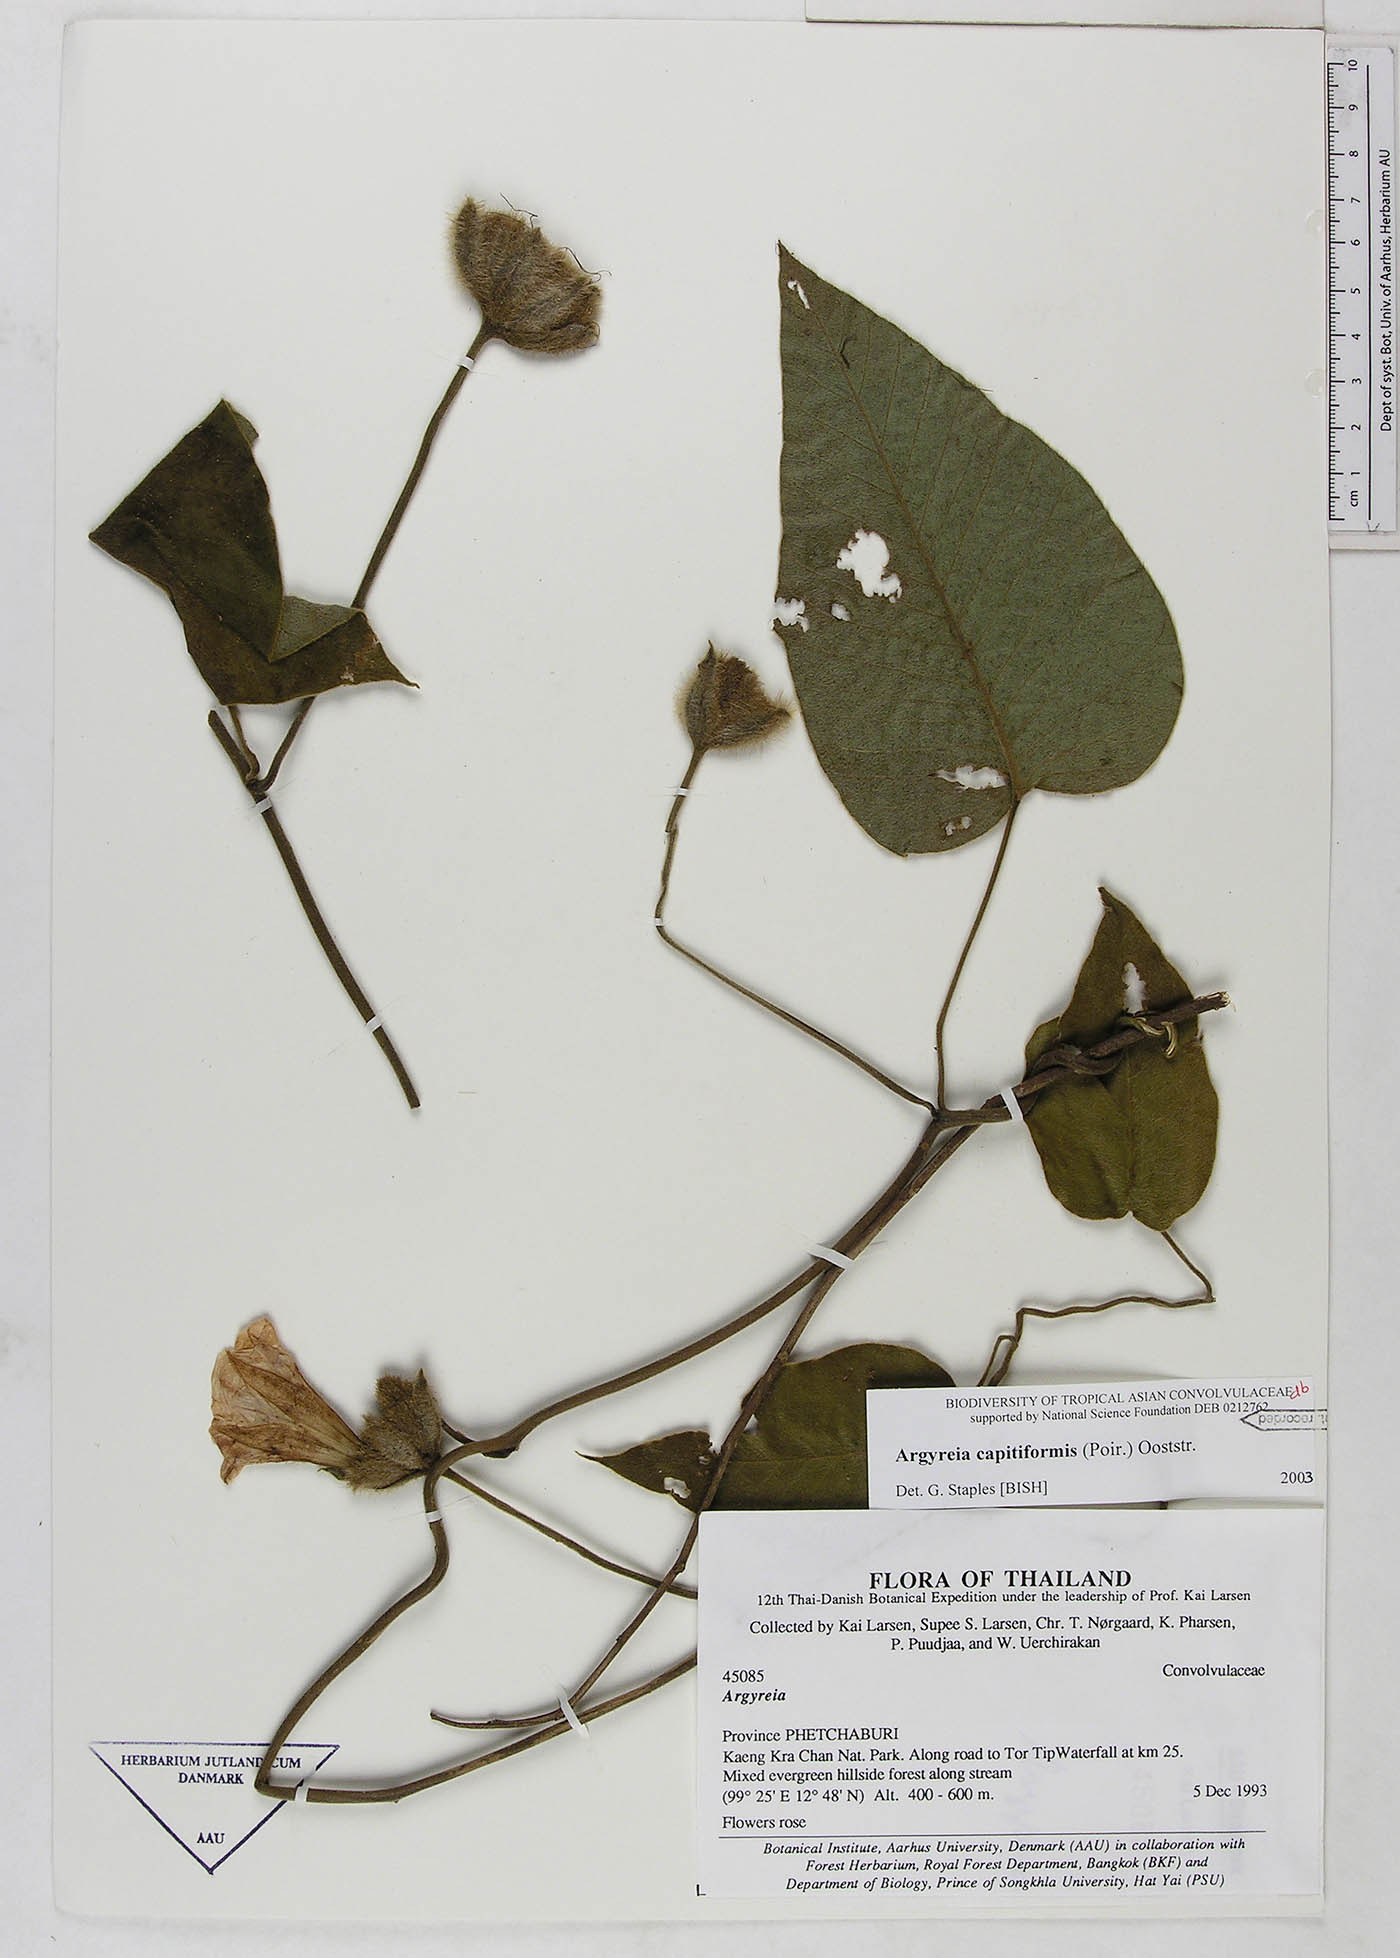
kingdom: Plantae
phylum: Tracheophyta
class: Magnoliopsida
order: Solanales
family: Convolvulaceae
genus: Argyreia
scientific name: Argyreia capitiformis
